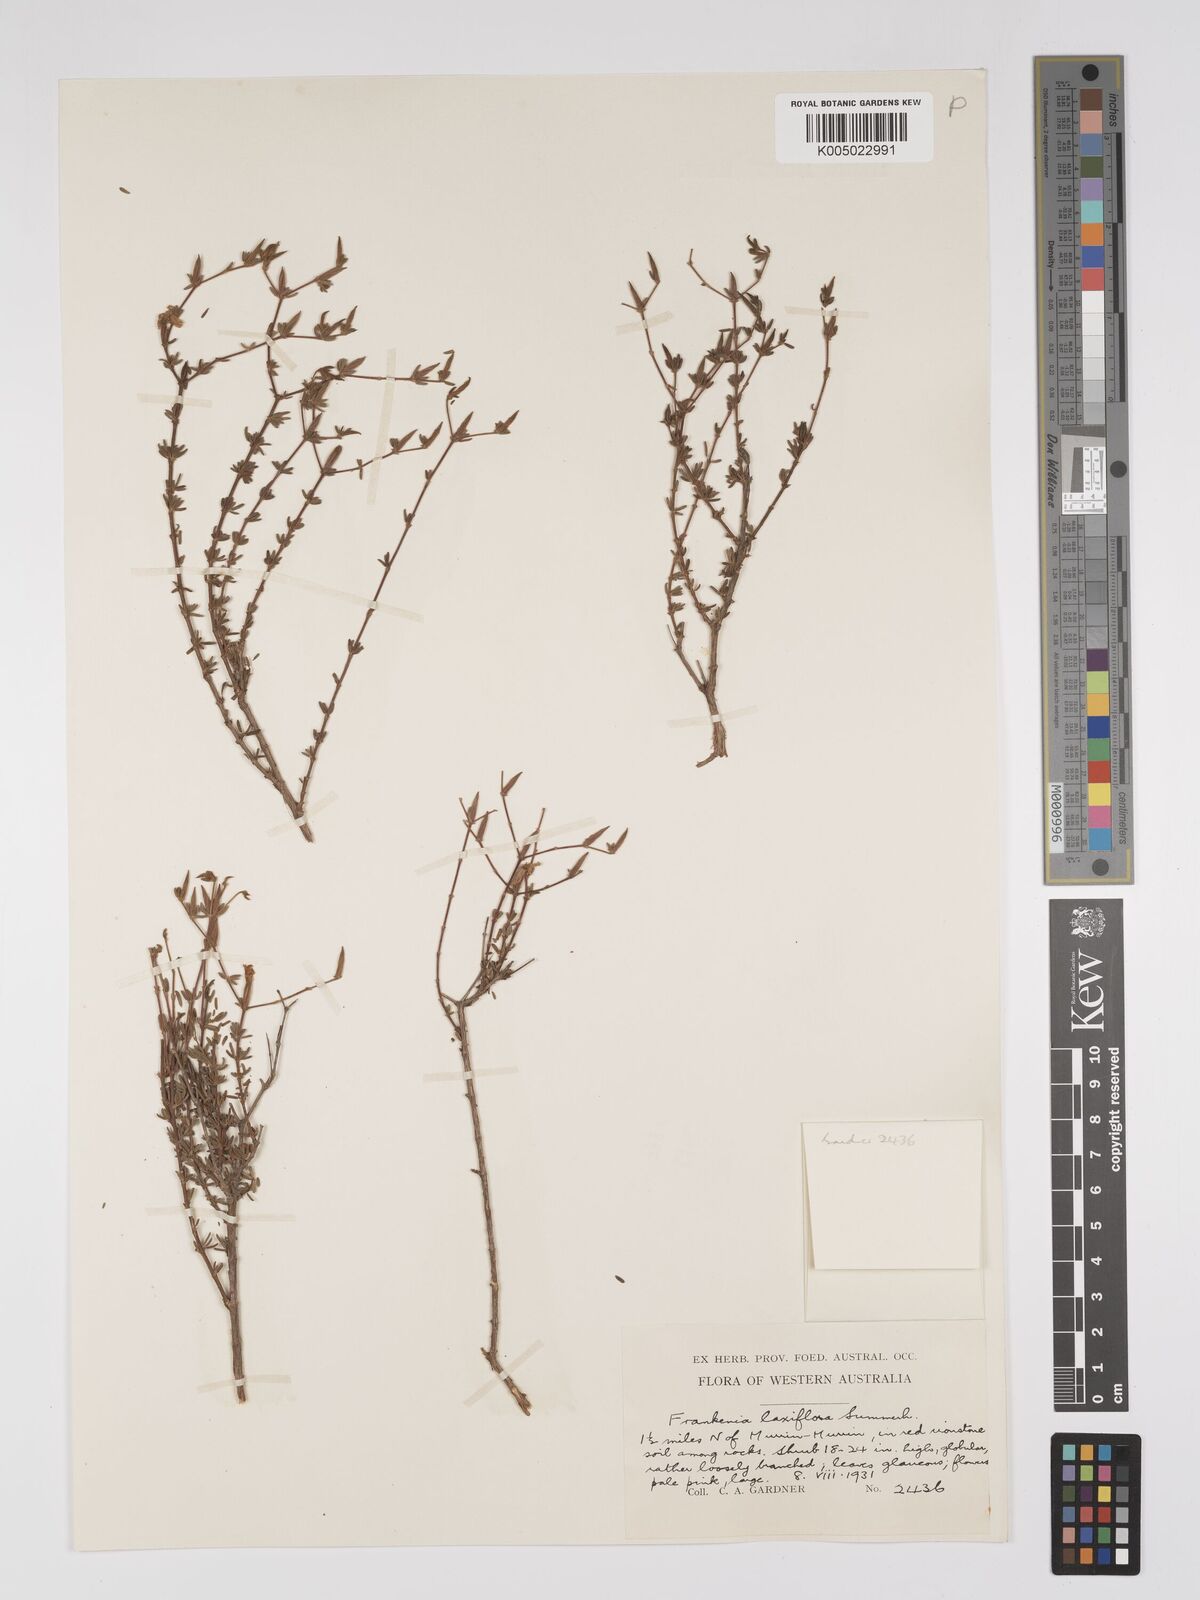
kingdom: Plantae
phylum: Tracheophyta
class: Magnoliopsida
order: Caryophyllales
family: Frankeniaceae
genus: Frankenia
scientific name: Frankenia laxiflora
